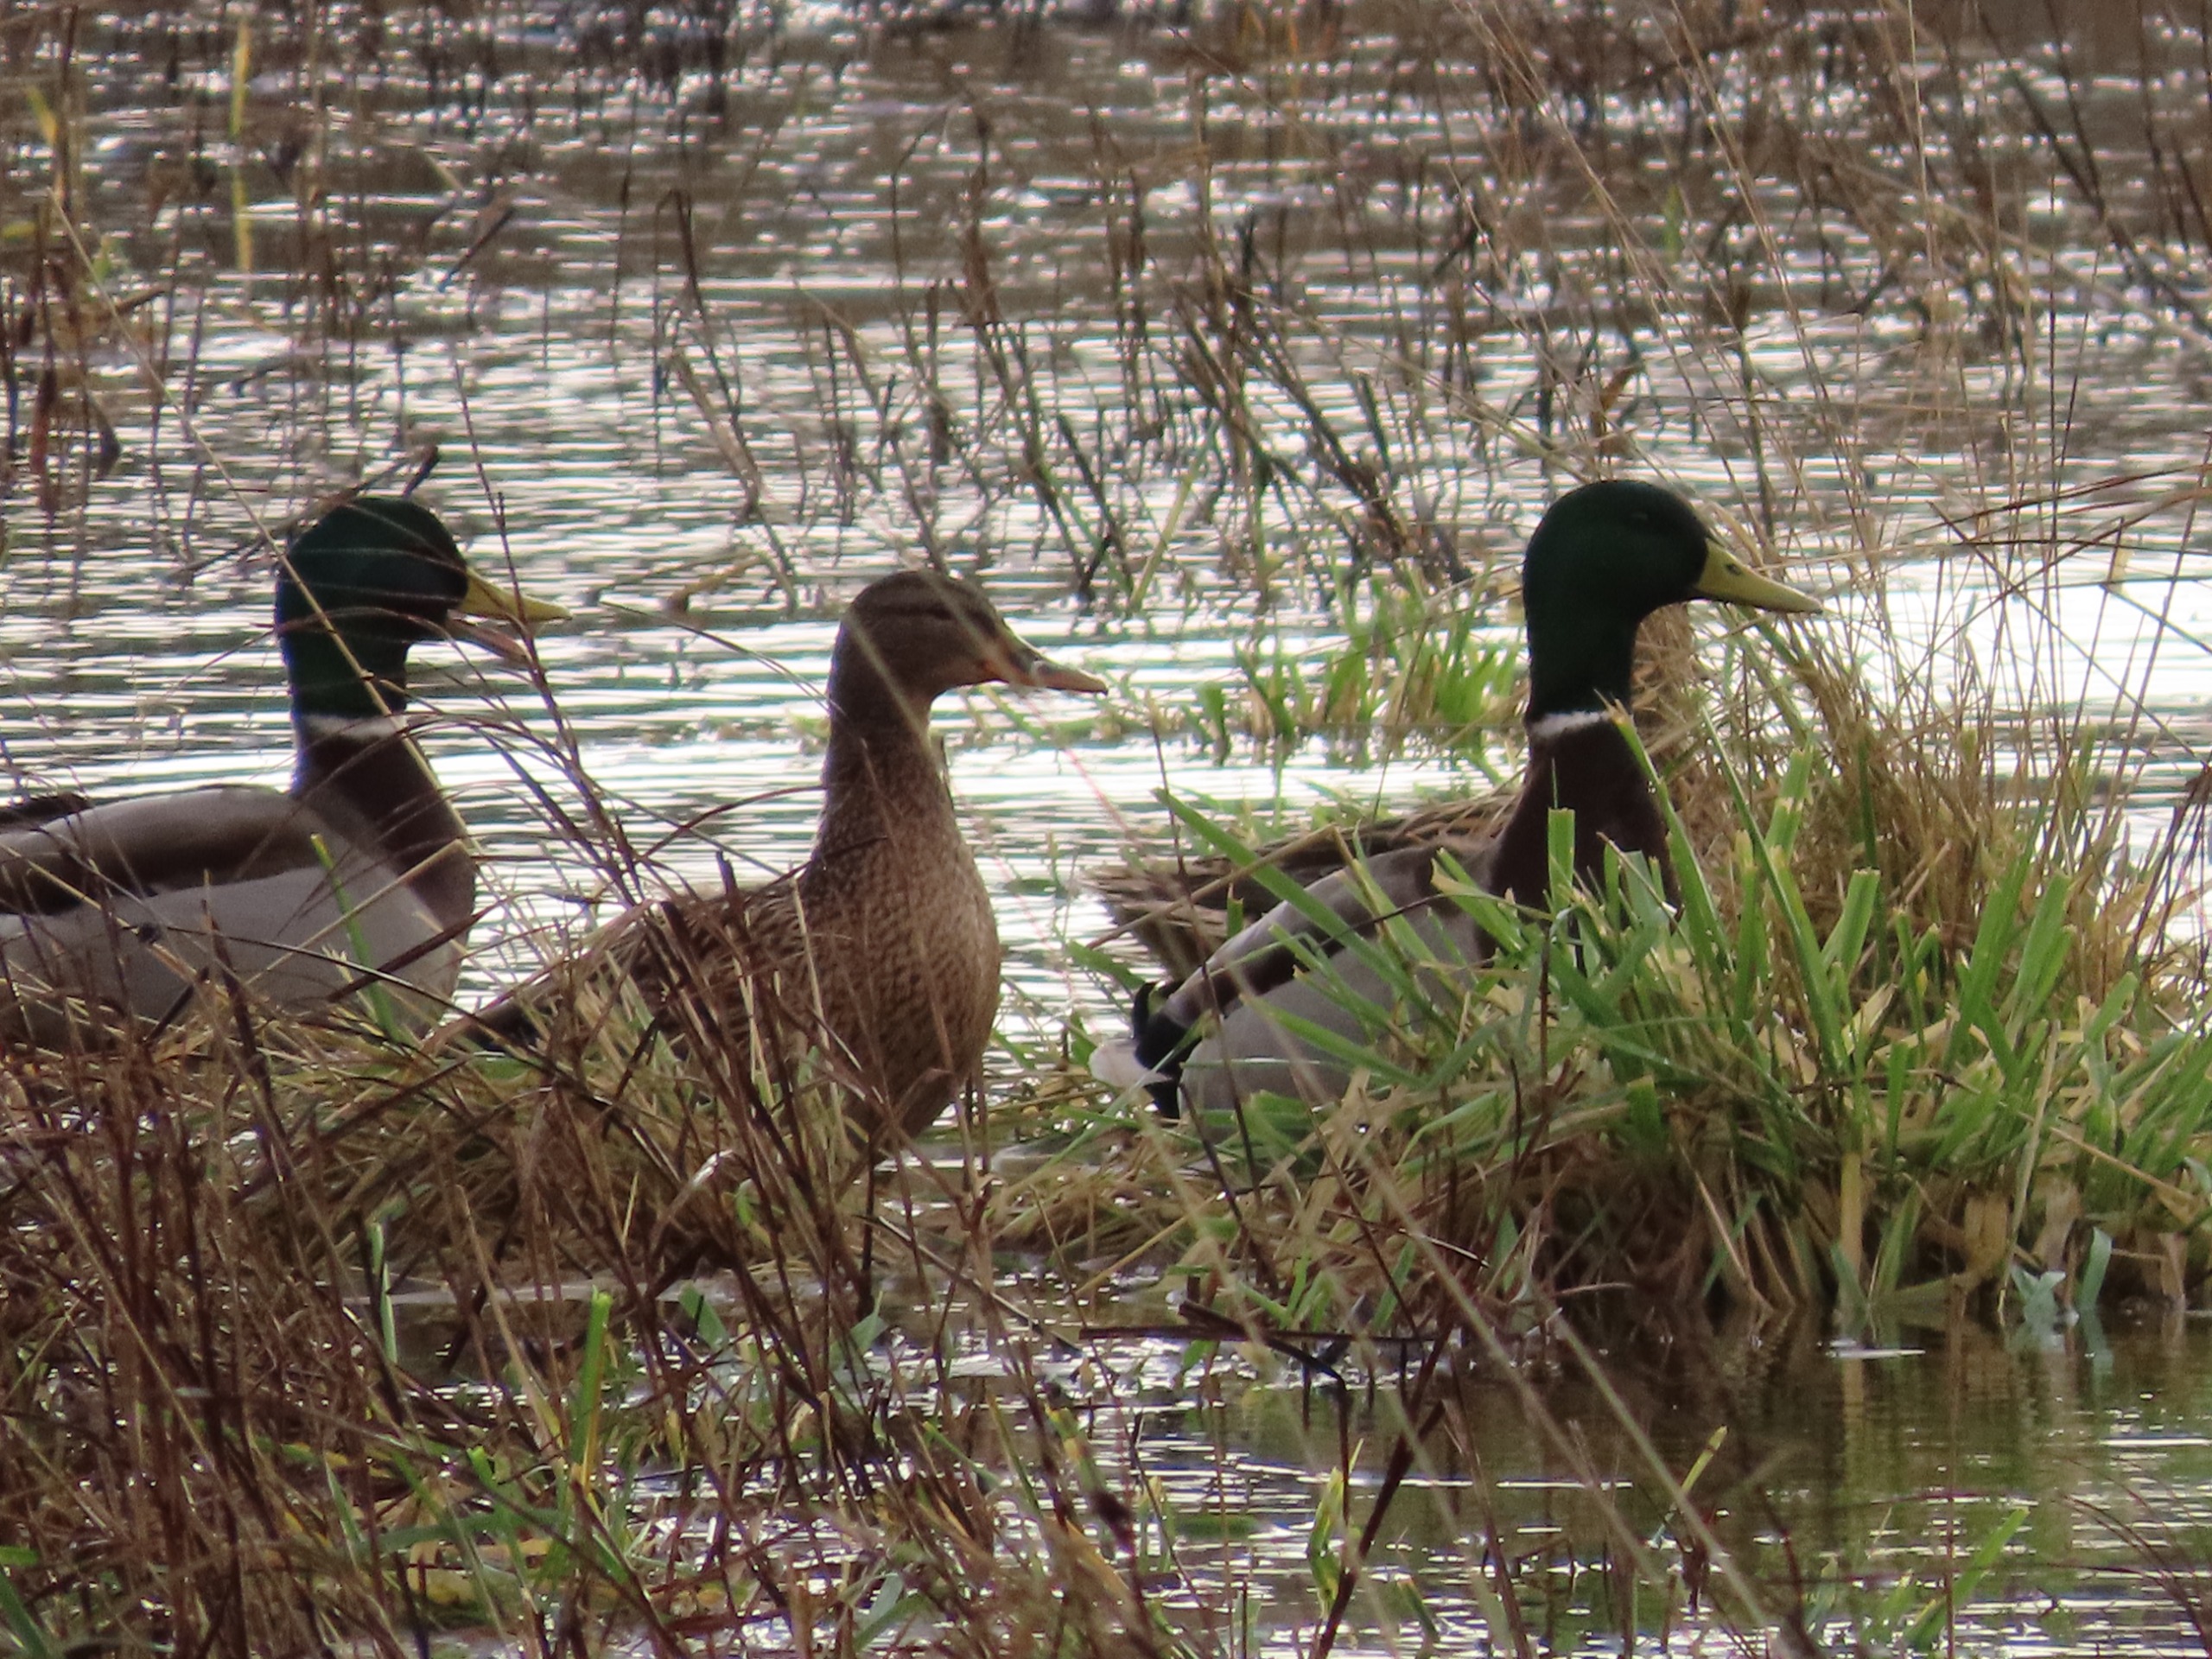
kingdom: Animalia
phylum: Chordata
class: Aves
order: Anseriformes
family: Anatidae
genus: Anas
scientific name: Anas platyrhynchos
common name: Gråand
